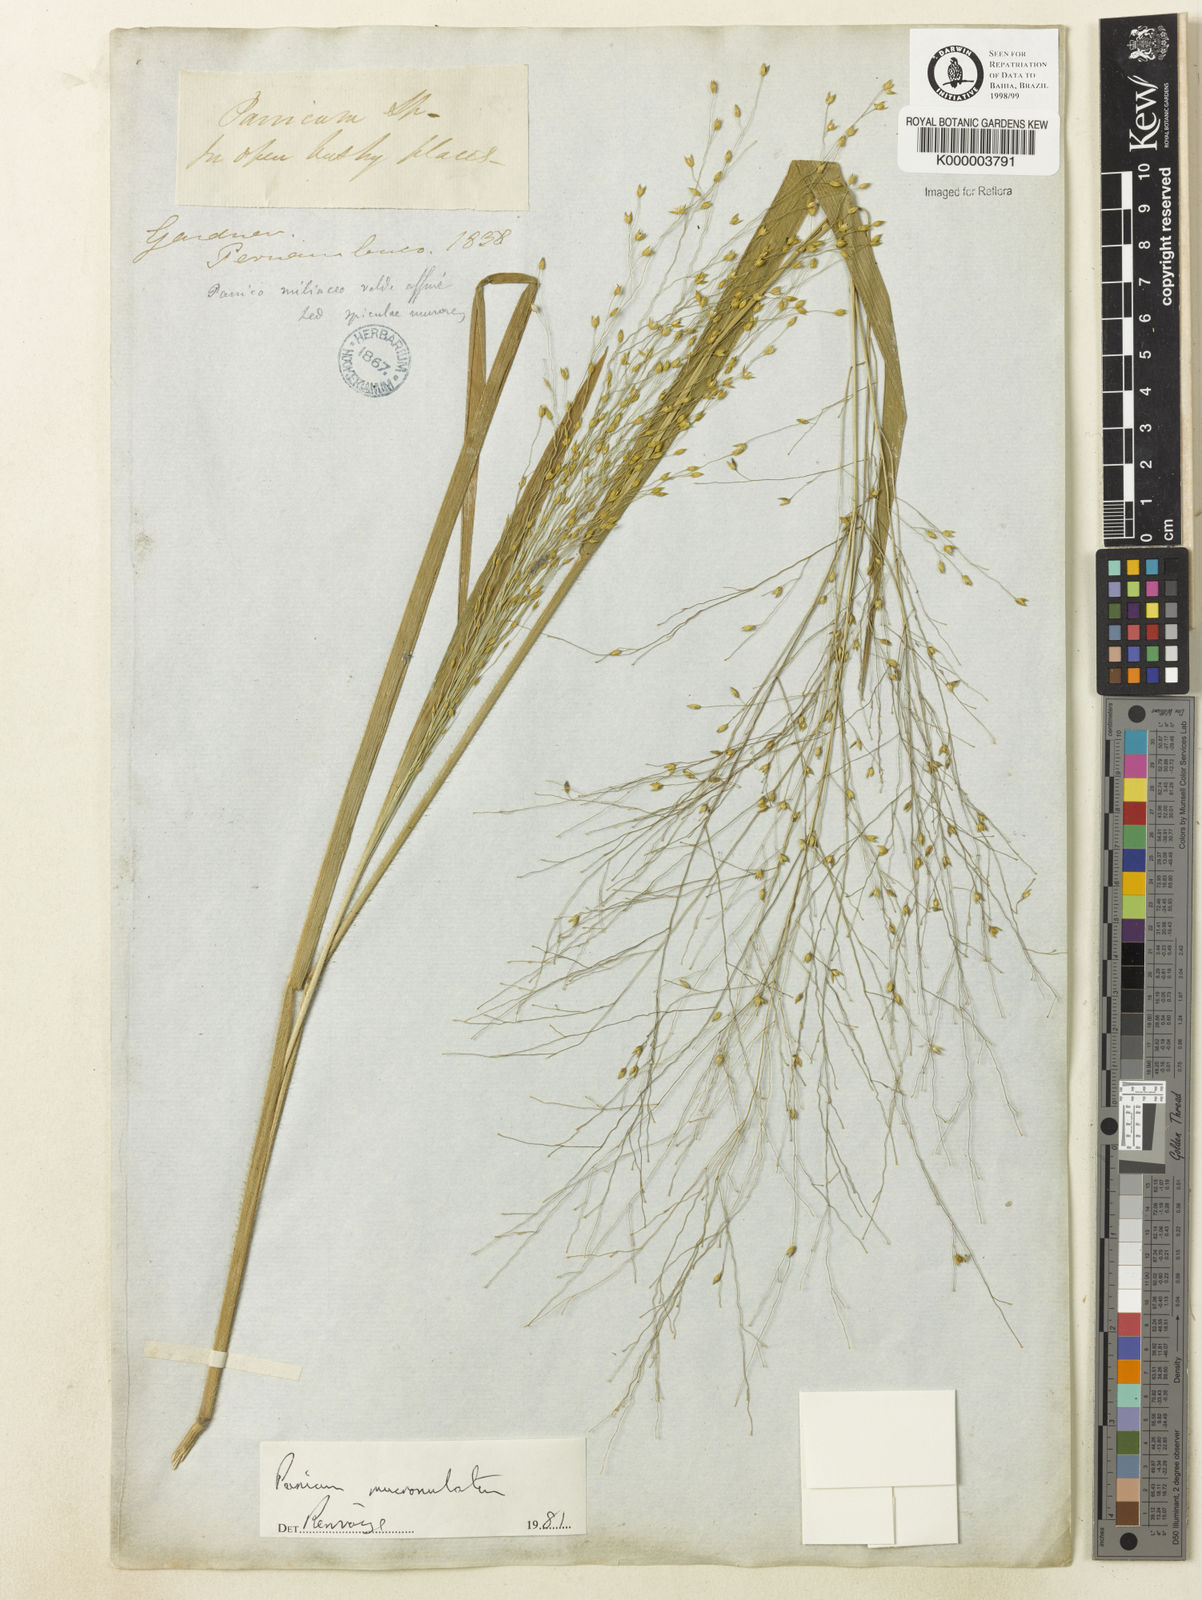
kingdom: Plantae
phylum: Tracheophyta
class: Liliopsida
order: Poales
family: Poaceae
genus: Panicum
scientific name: Panicum mucronulatum
